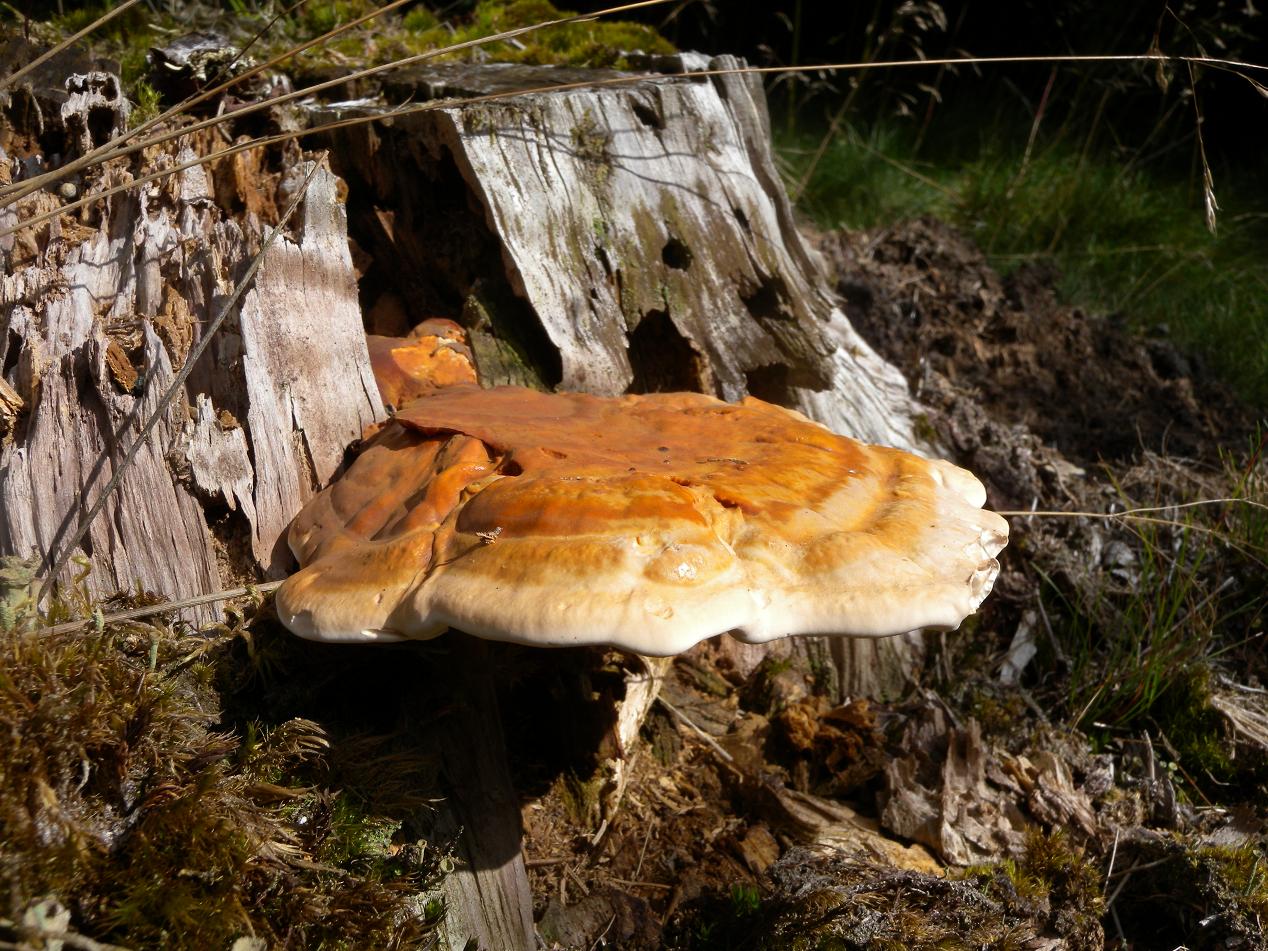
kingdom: Fungi
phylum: Basidiomycota
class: Agaricomycetes
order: Polyporales
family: Polyporaceae
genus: Ganoderma
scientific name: Ganoderma lucidum
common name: skinnende lakporesvamp
